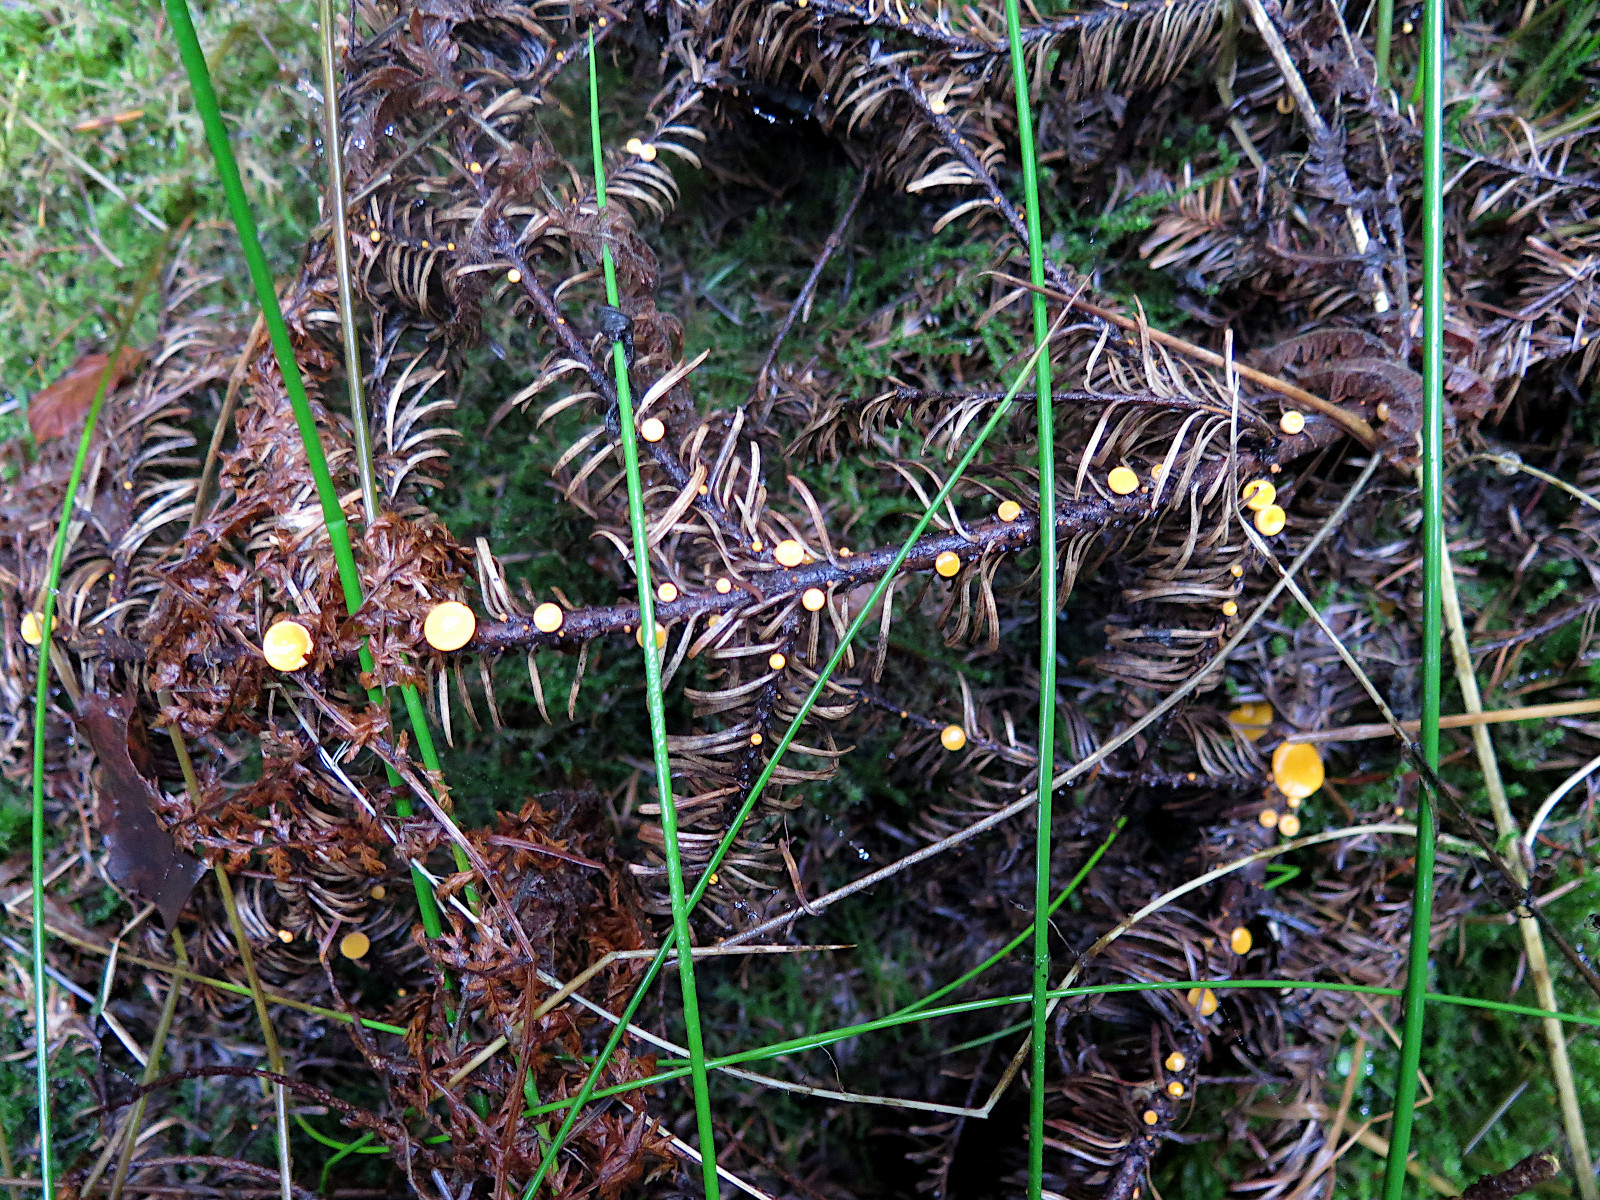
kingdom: Fungi
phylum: Ascomycota
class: Pezizomycetes
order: Pezizales
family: Sarcoscyphaceae
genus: Pithya
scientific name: Pithya vulgaris
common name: stor dukatbæger
